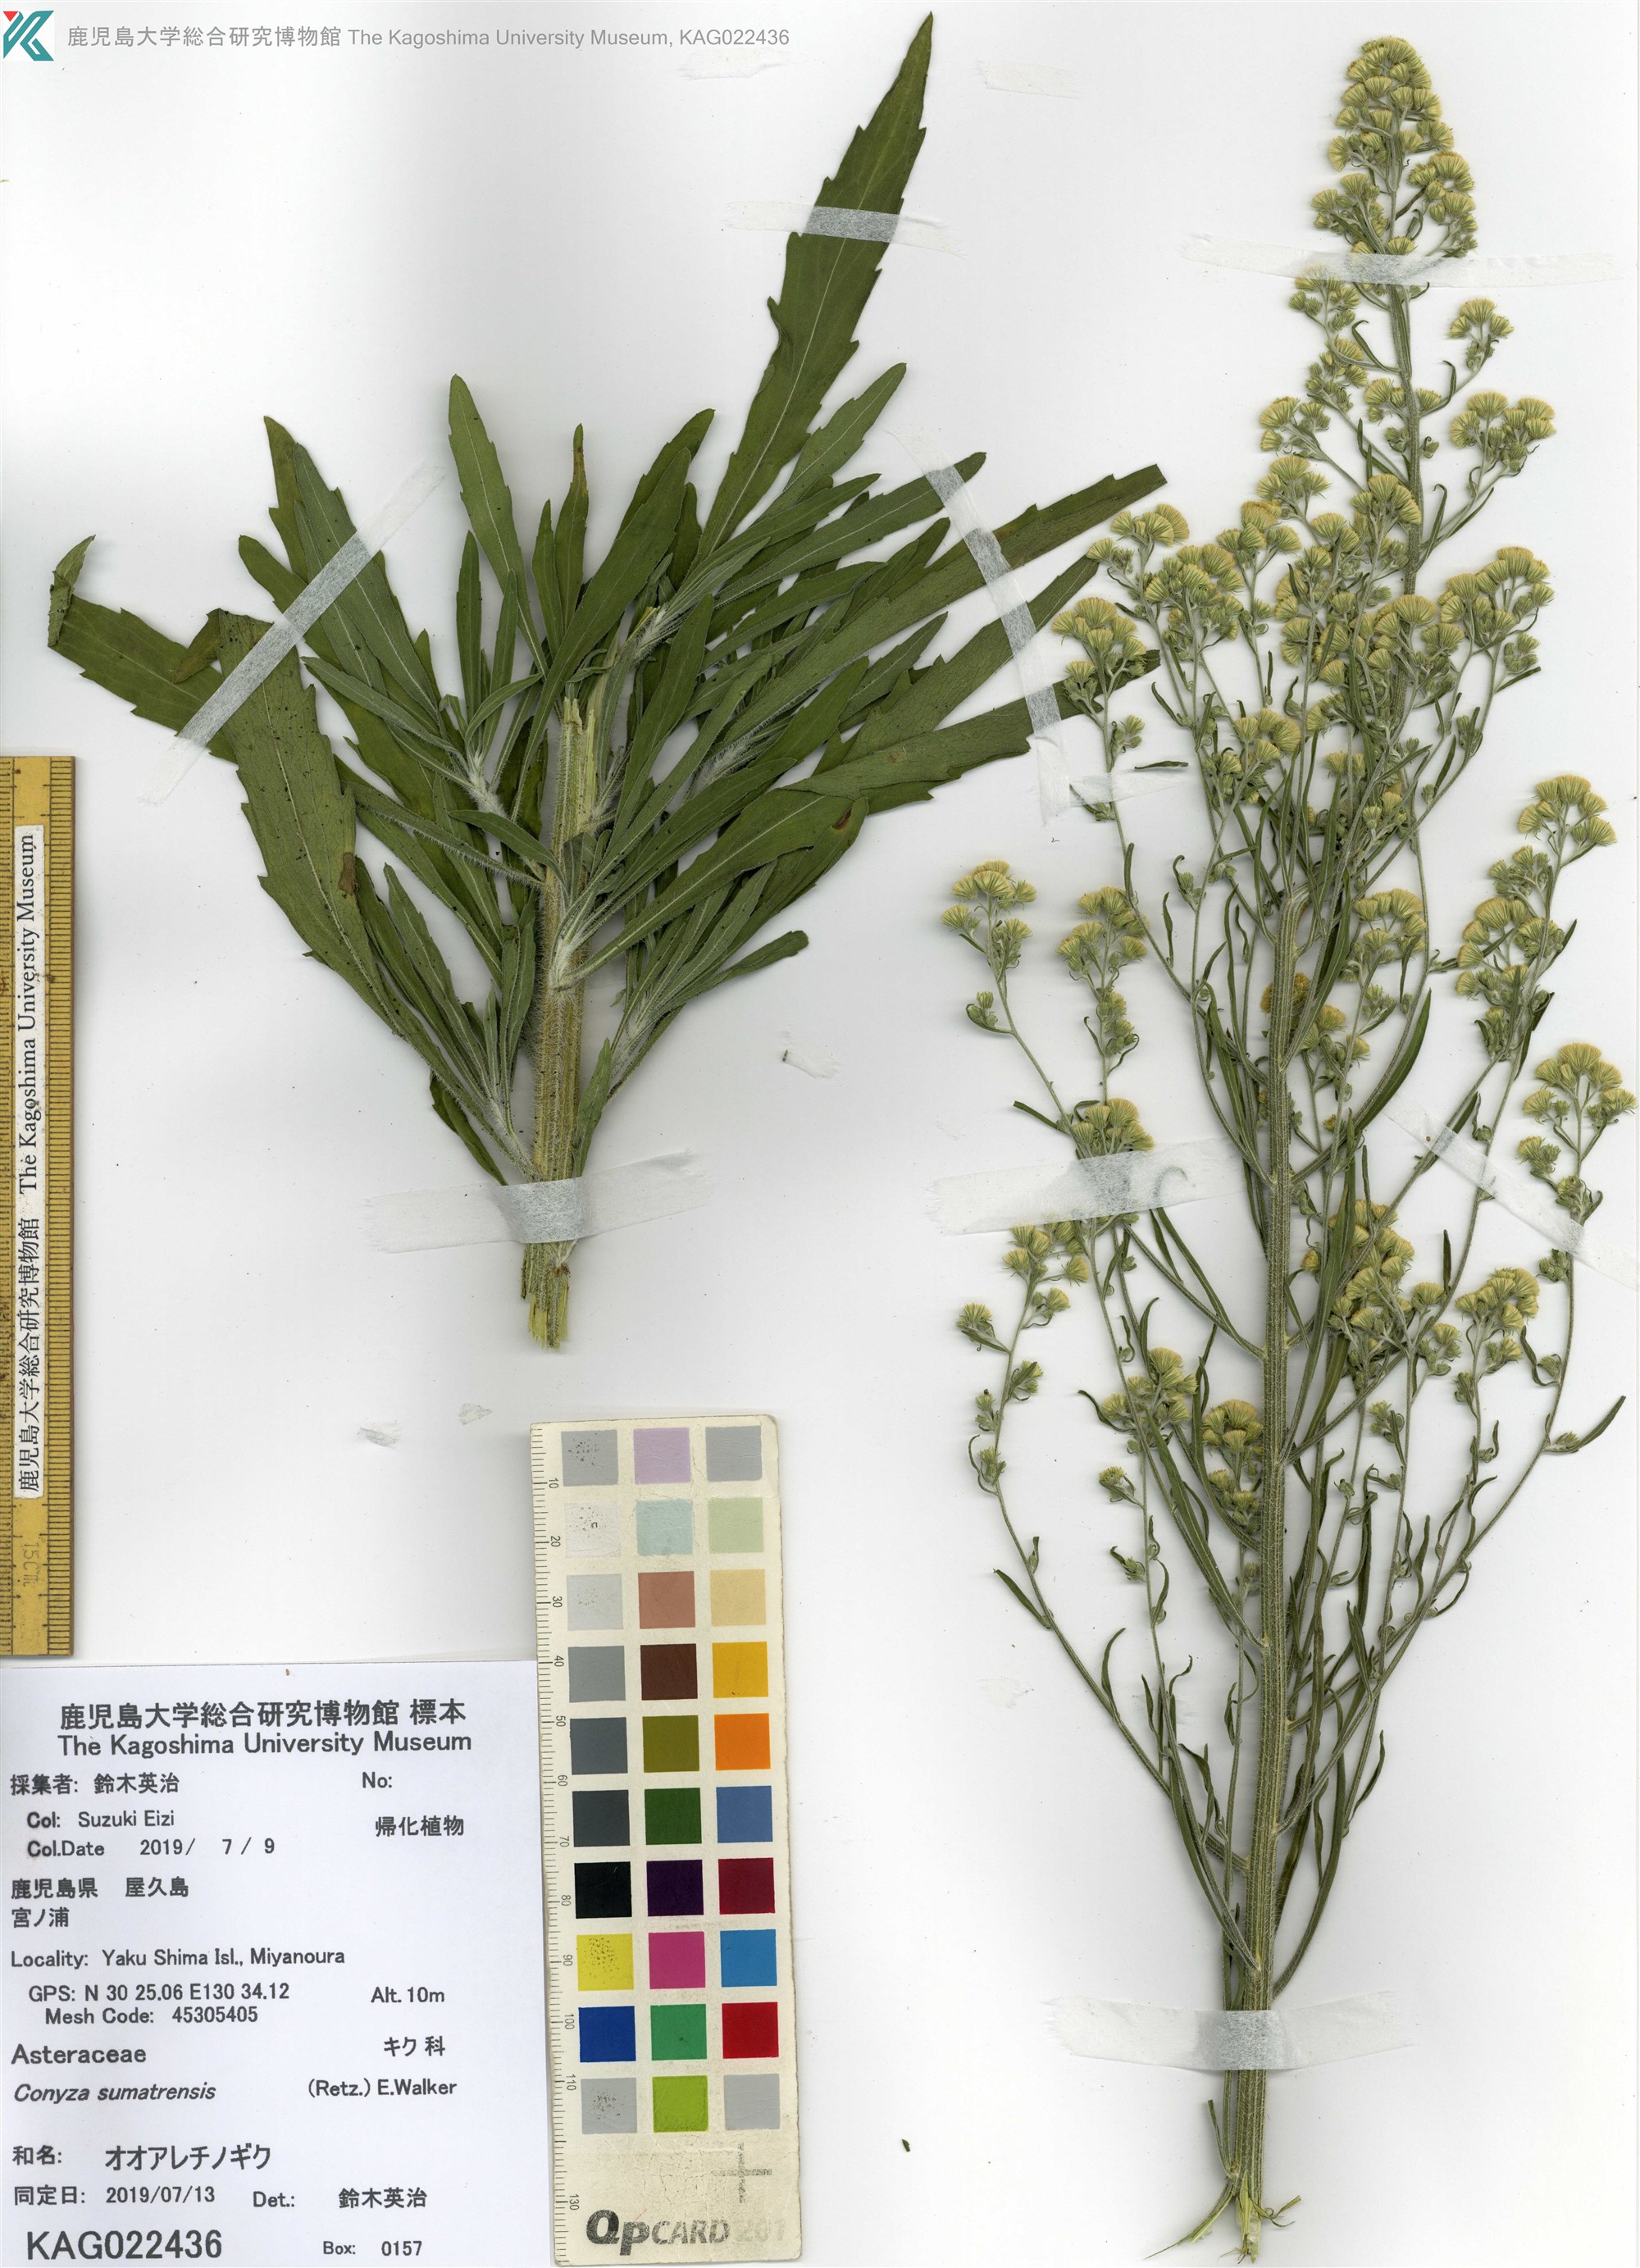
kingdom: Plantae
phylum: Tracheophyta
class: Magnoliopsida
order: Asterales
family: Asteraceae
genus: Erigeron
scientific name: Erigeron sumatrensis
